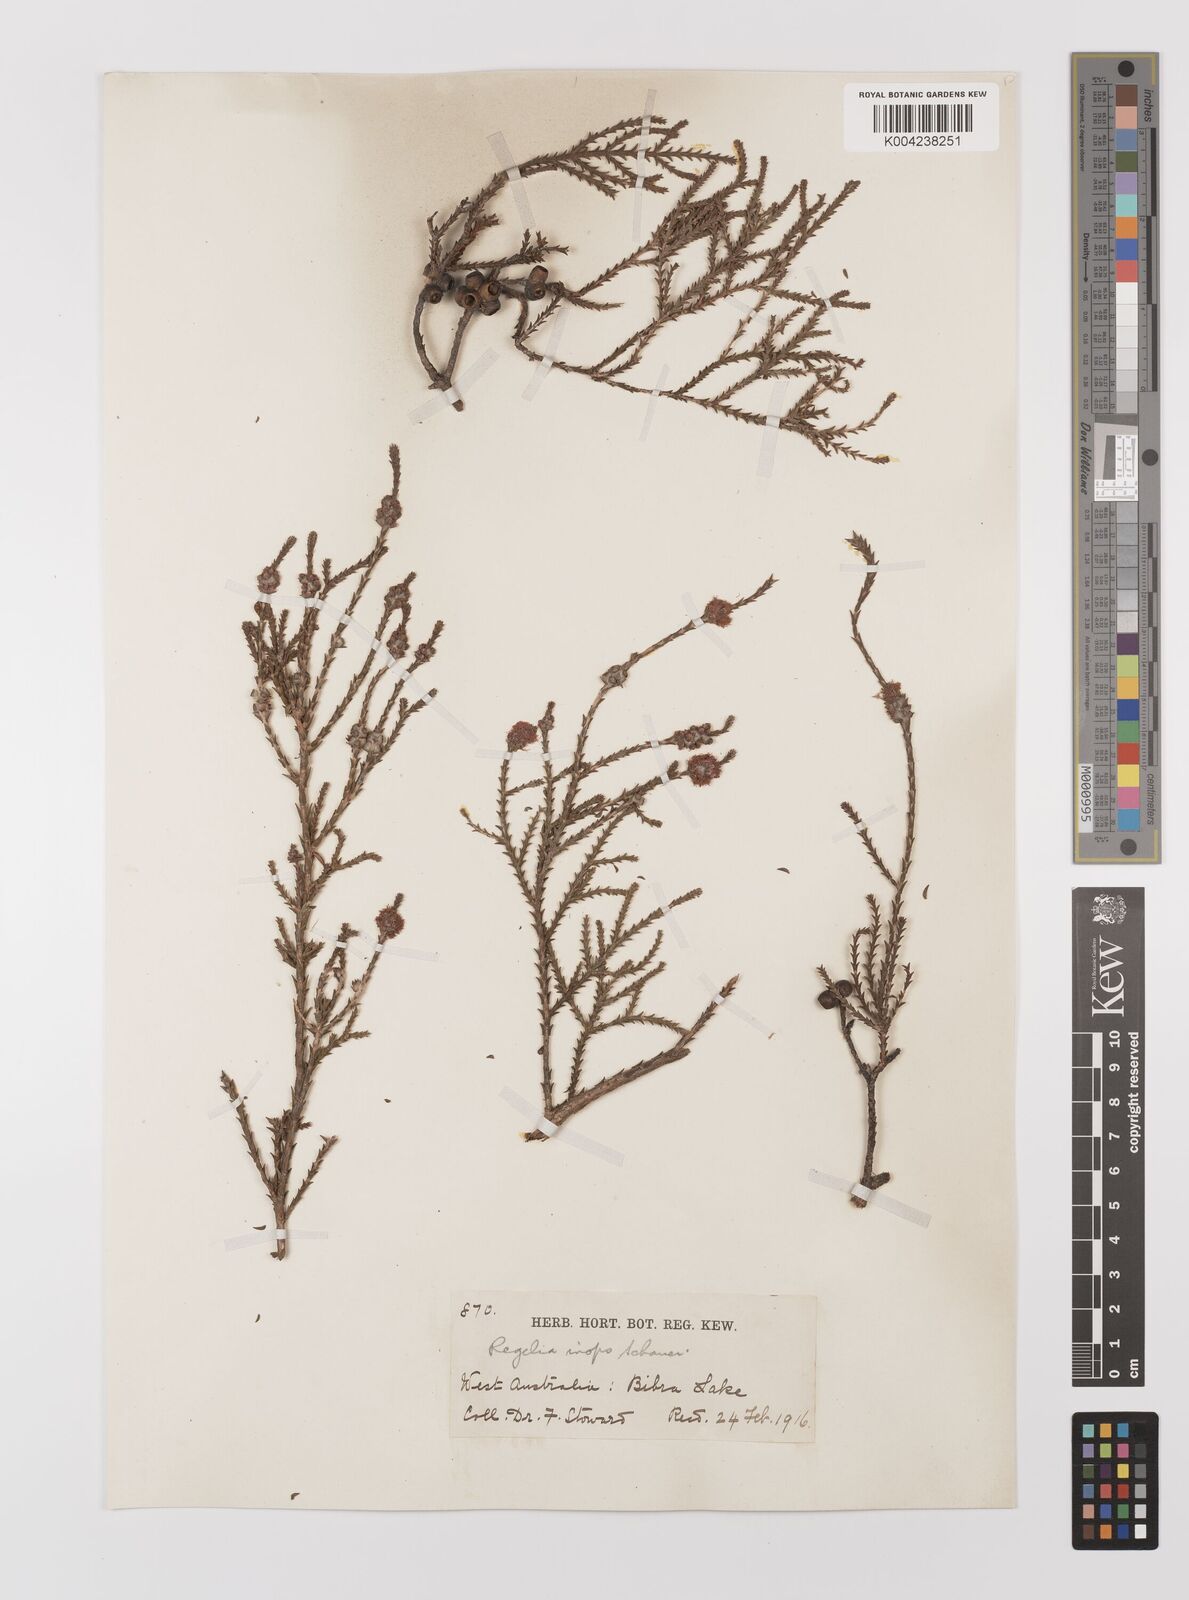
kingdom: Plantae
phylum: Tracheophyta
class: Magnoliopsida
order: Myrtales
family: Myrtaceae
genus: Melaleuca
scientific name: Melaleuca inops
